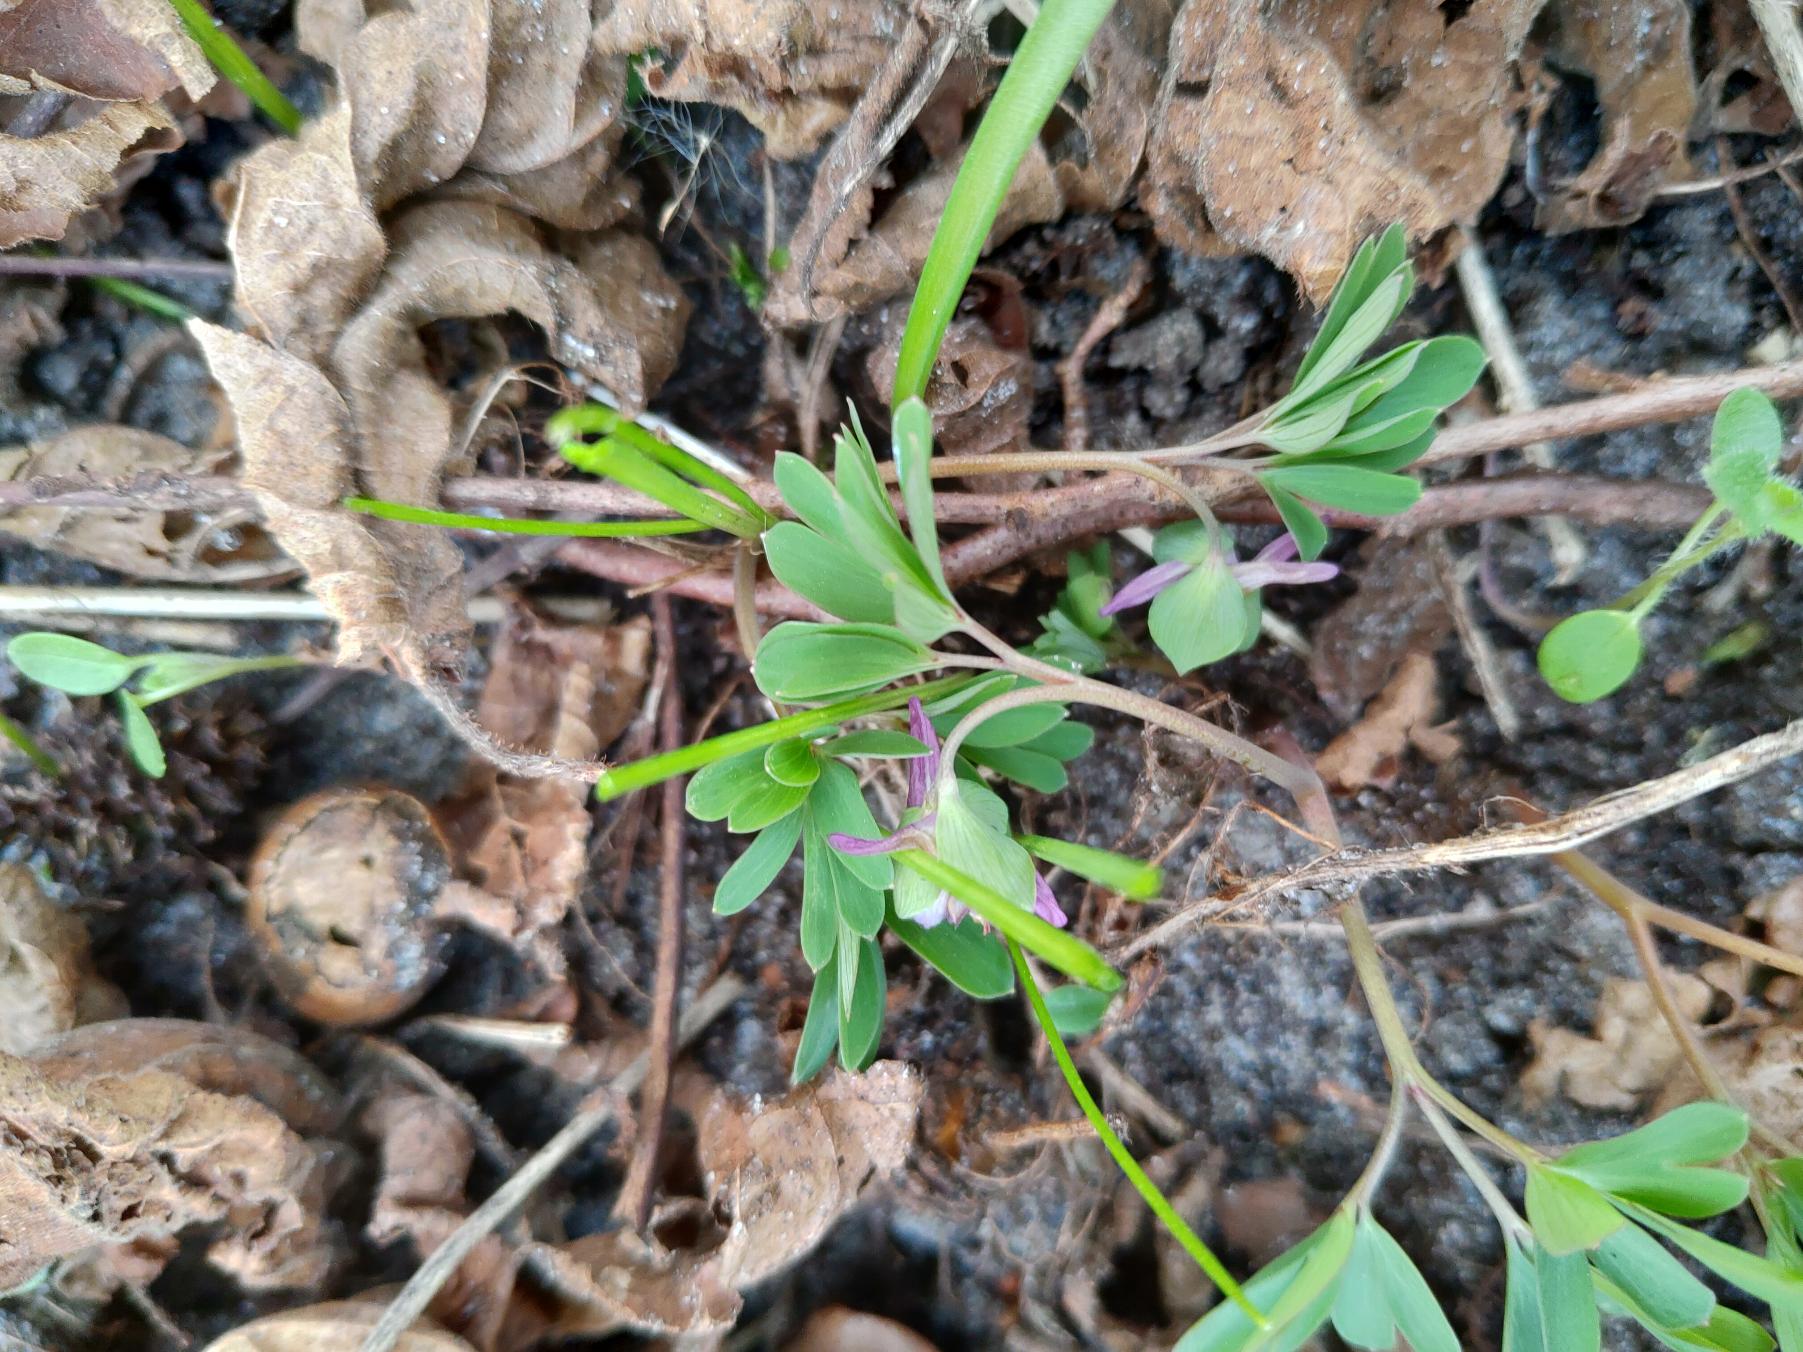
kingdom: Plantae
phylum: Tracheophyta
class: Magnoliopsida
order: Ranunculales
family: Papaveraceae
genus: Corydalis
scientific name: Corydalis intermedia
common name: Liden lærkespore
